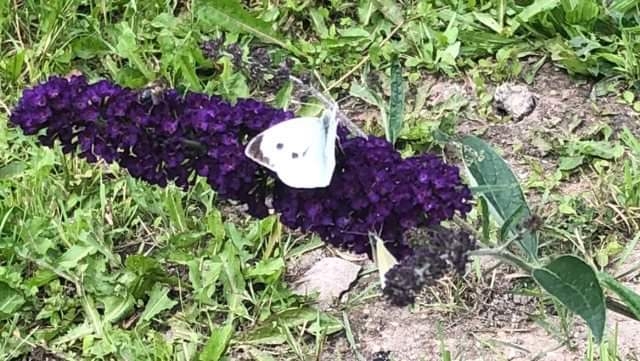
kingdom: Animalia
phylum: Arthropoda
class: Insecta
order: Lepidoptera
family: Pieridae
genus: Pieris
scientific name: Pieris brassicae
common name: Stor kålsommerfugl
